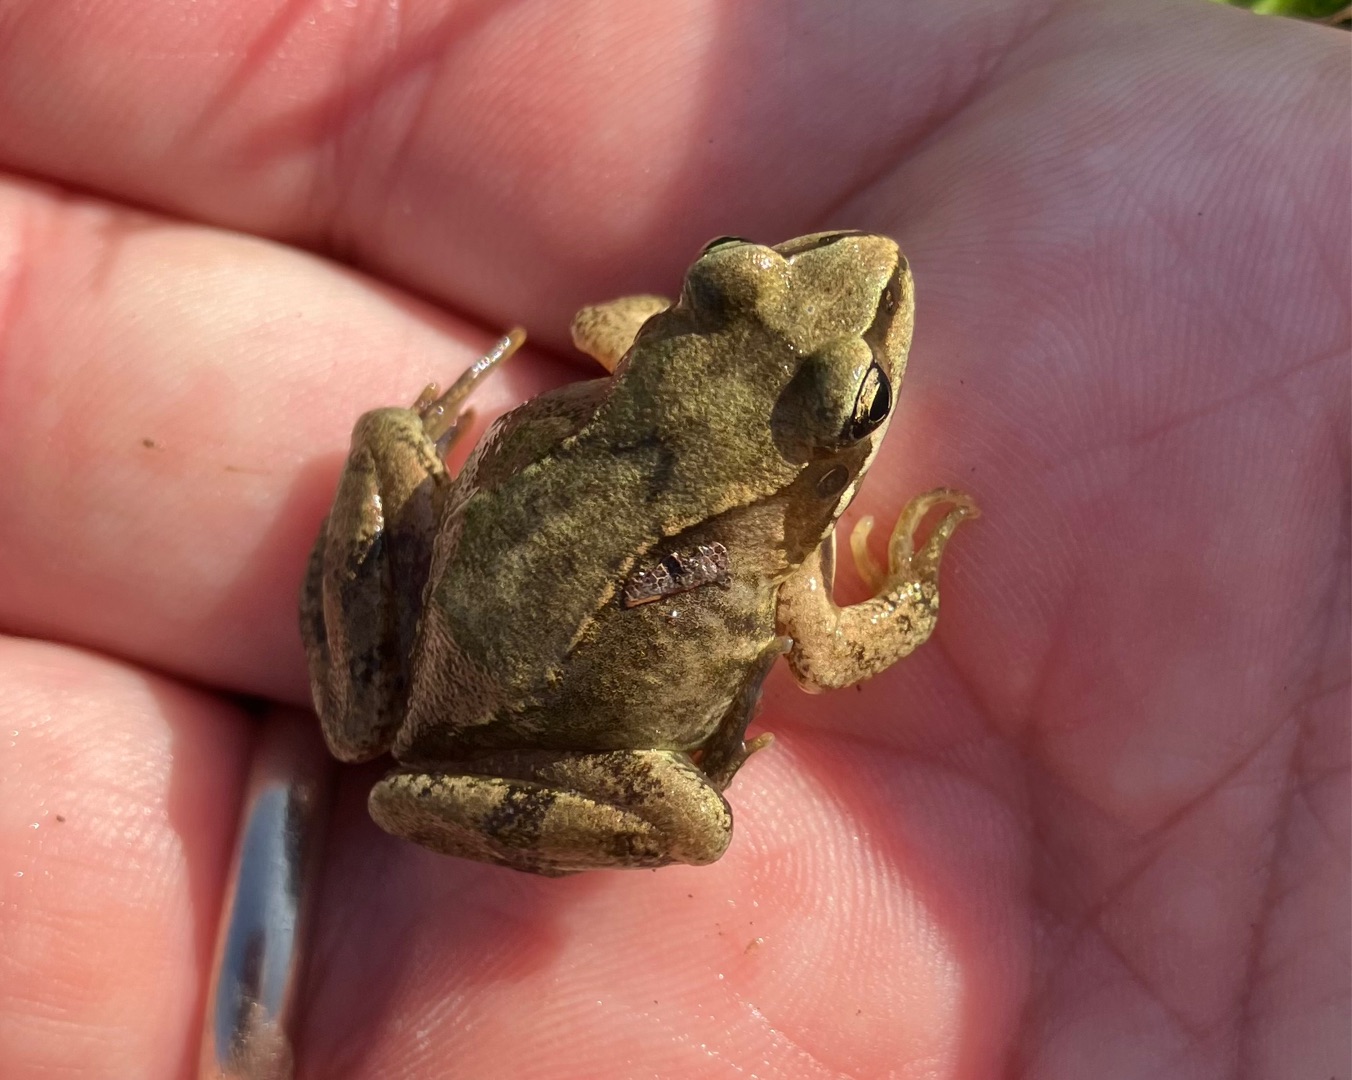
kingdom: Animalia
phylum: Chordata
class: Amphibia
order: Anura
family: Ranidae
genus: Rana
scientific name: Rana temporaria
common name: Butsnudet frø
